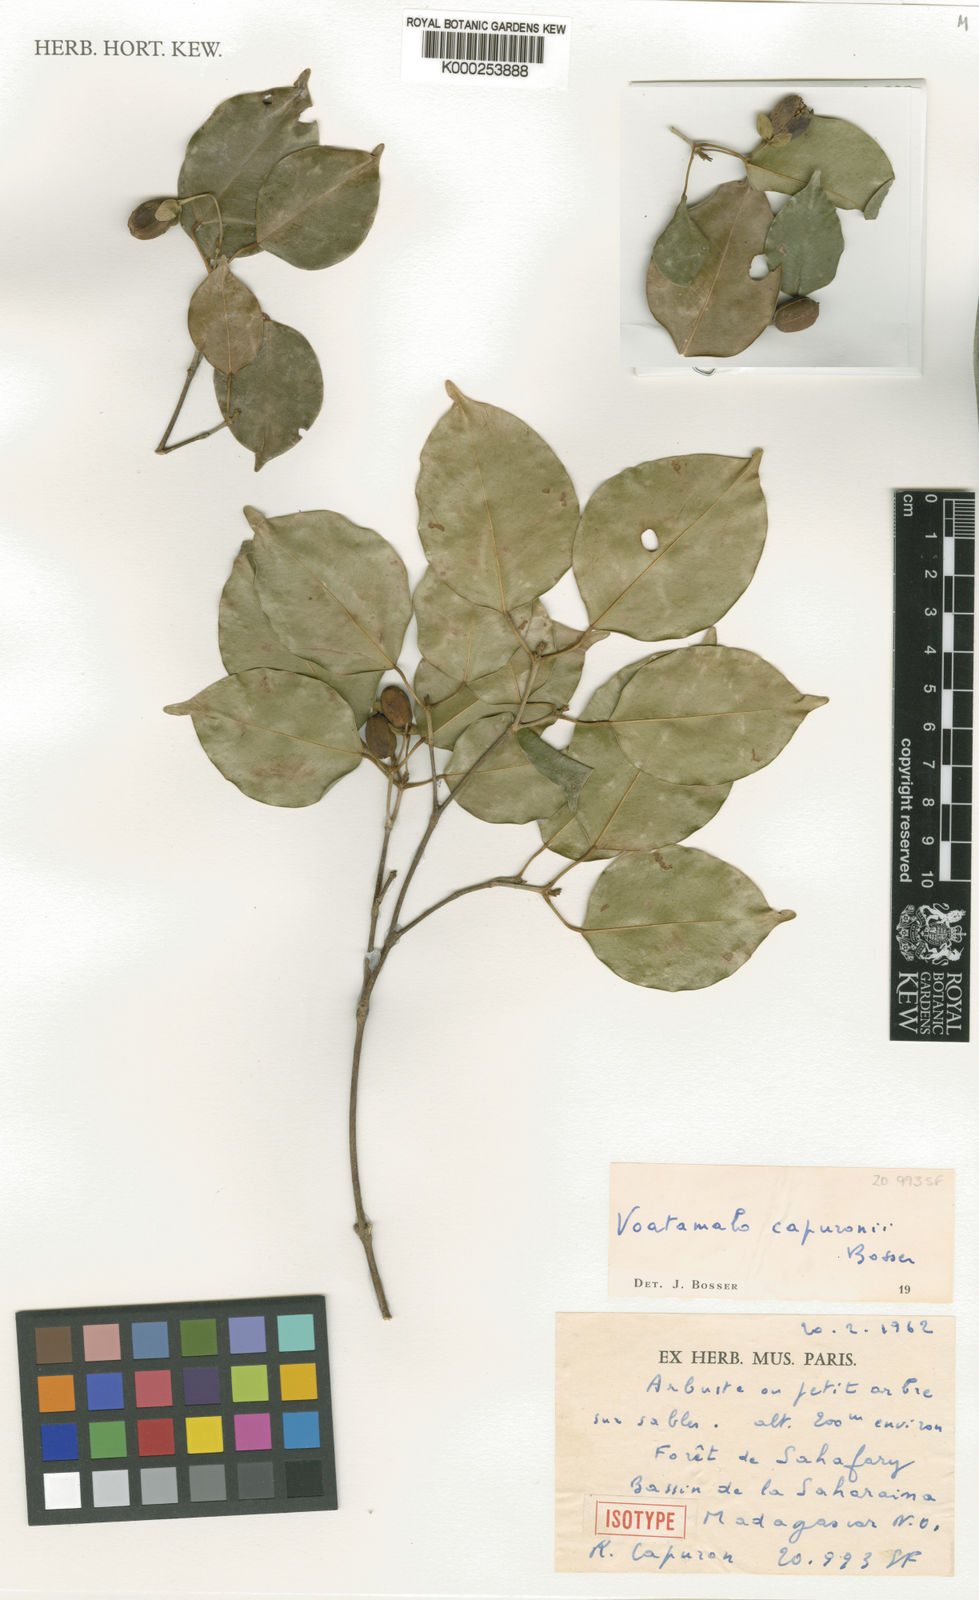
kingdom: Plantae
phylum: Tracheophyta
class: Magnoliopsida
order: Malpighiales
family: Picrodendraceae
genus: Voatamalo
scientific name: Voatamalo capuronii
